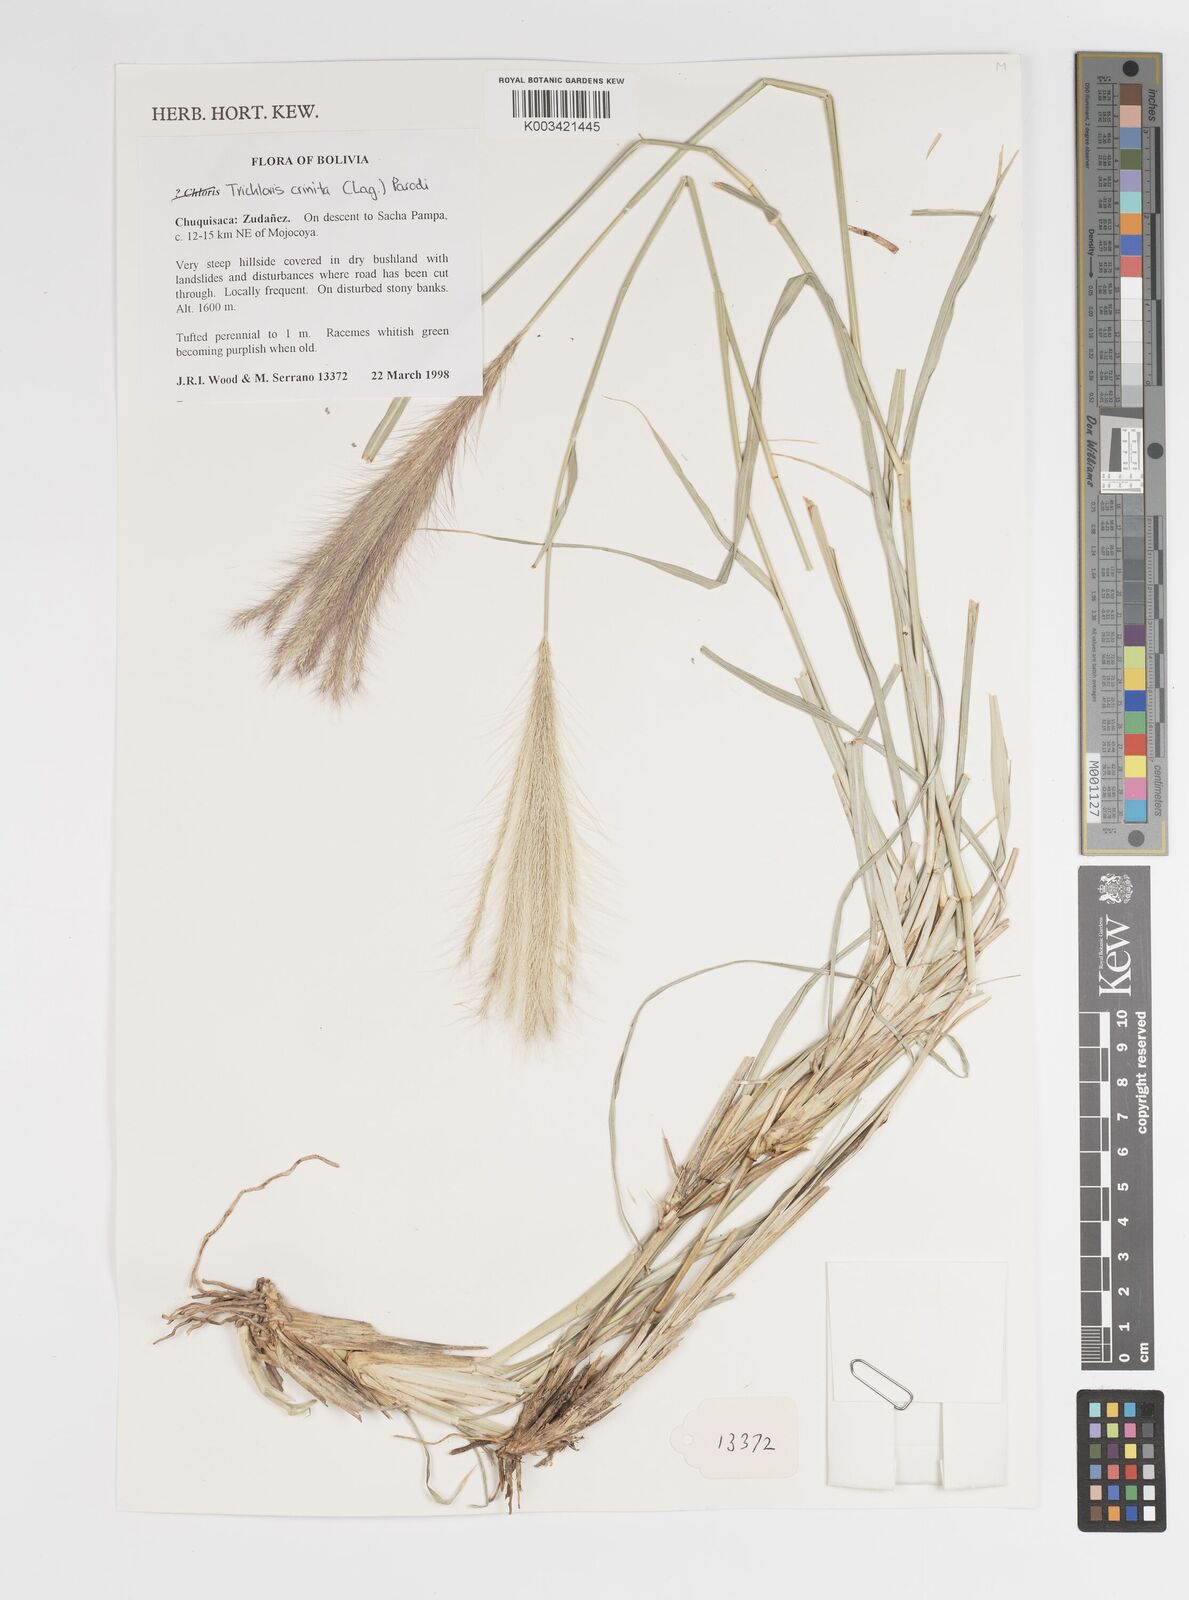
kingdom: Plantae
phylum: Tracheophyta
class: Liliopsida
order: Poales
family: Poaceae
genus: Leptochloa
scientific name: Leptochloa crinita
